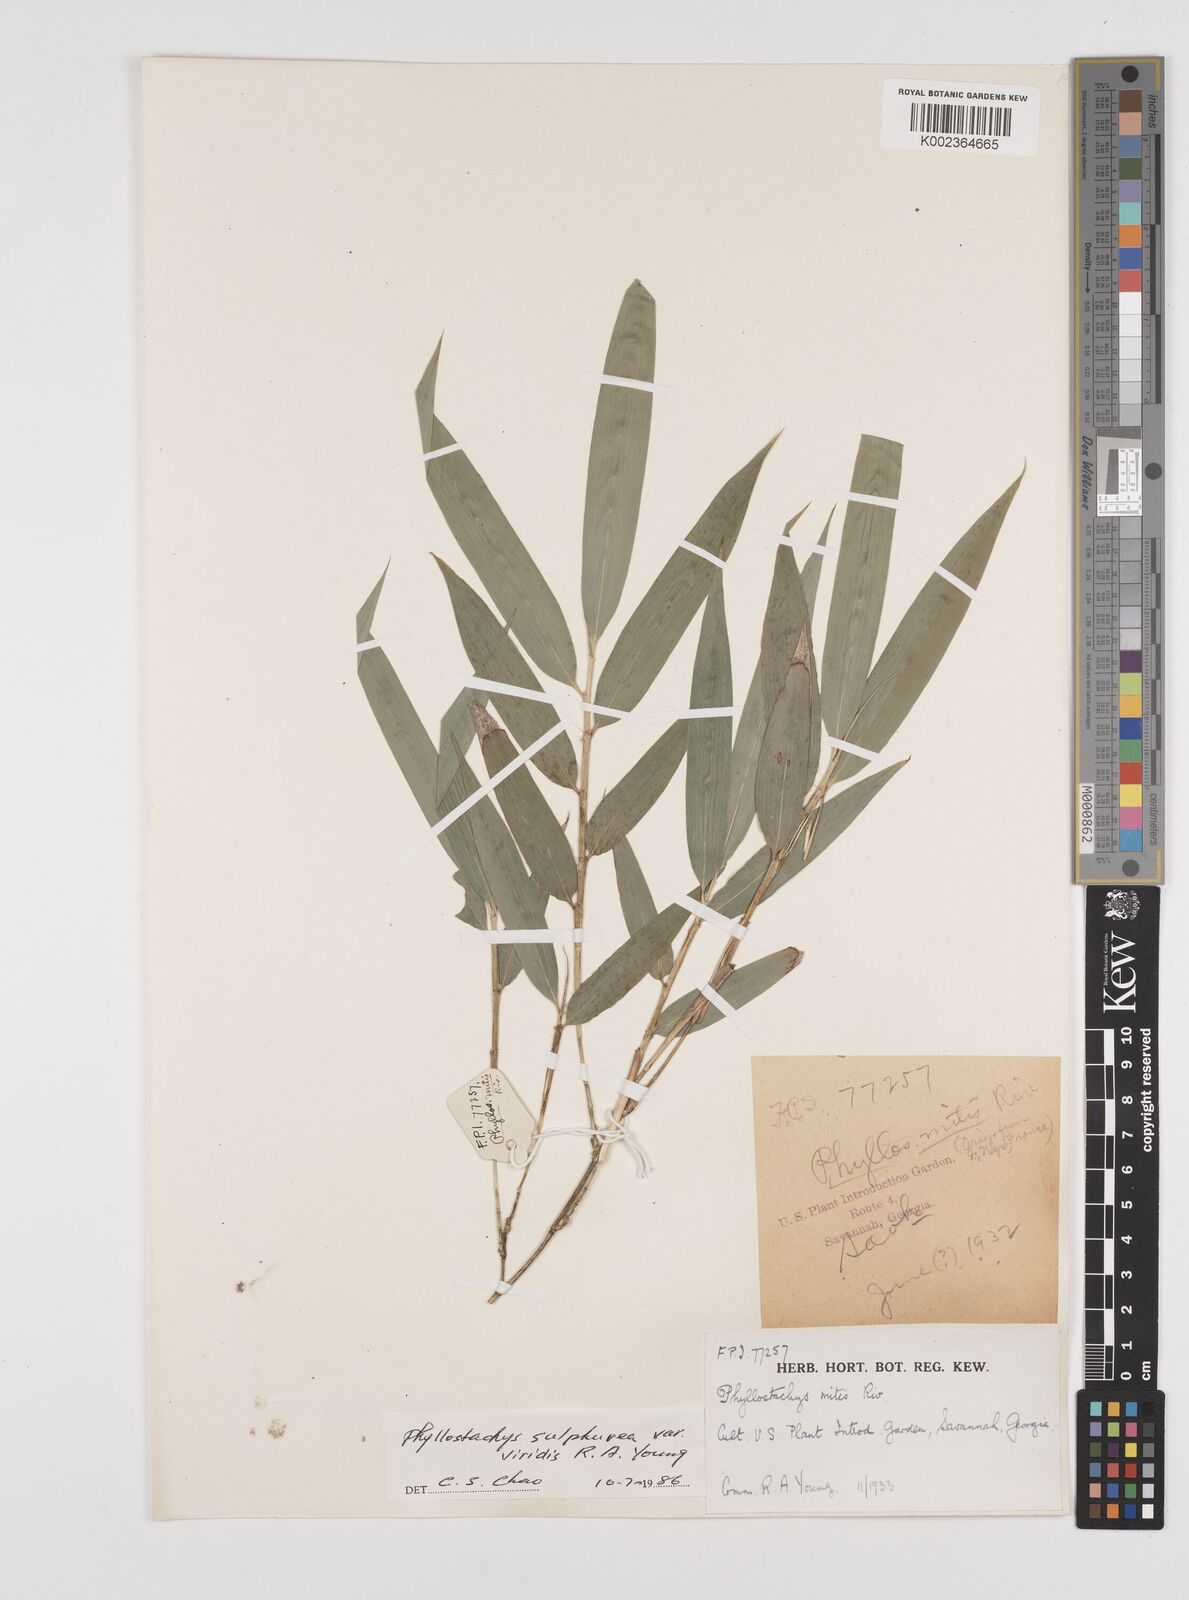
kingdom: Plantae
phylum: Tracheophyta
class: Liliopsida
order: Poales
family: Poaceae
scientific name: Poaceae
